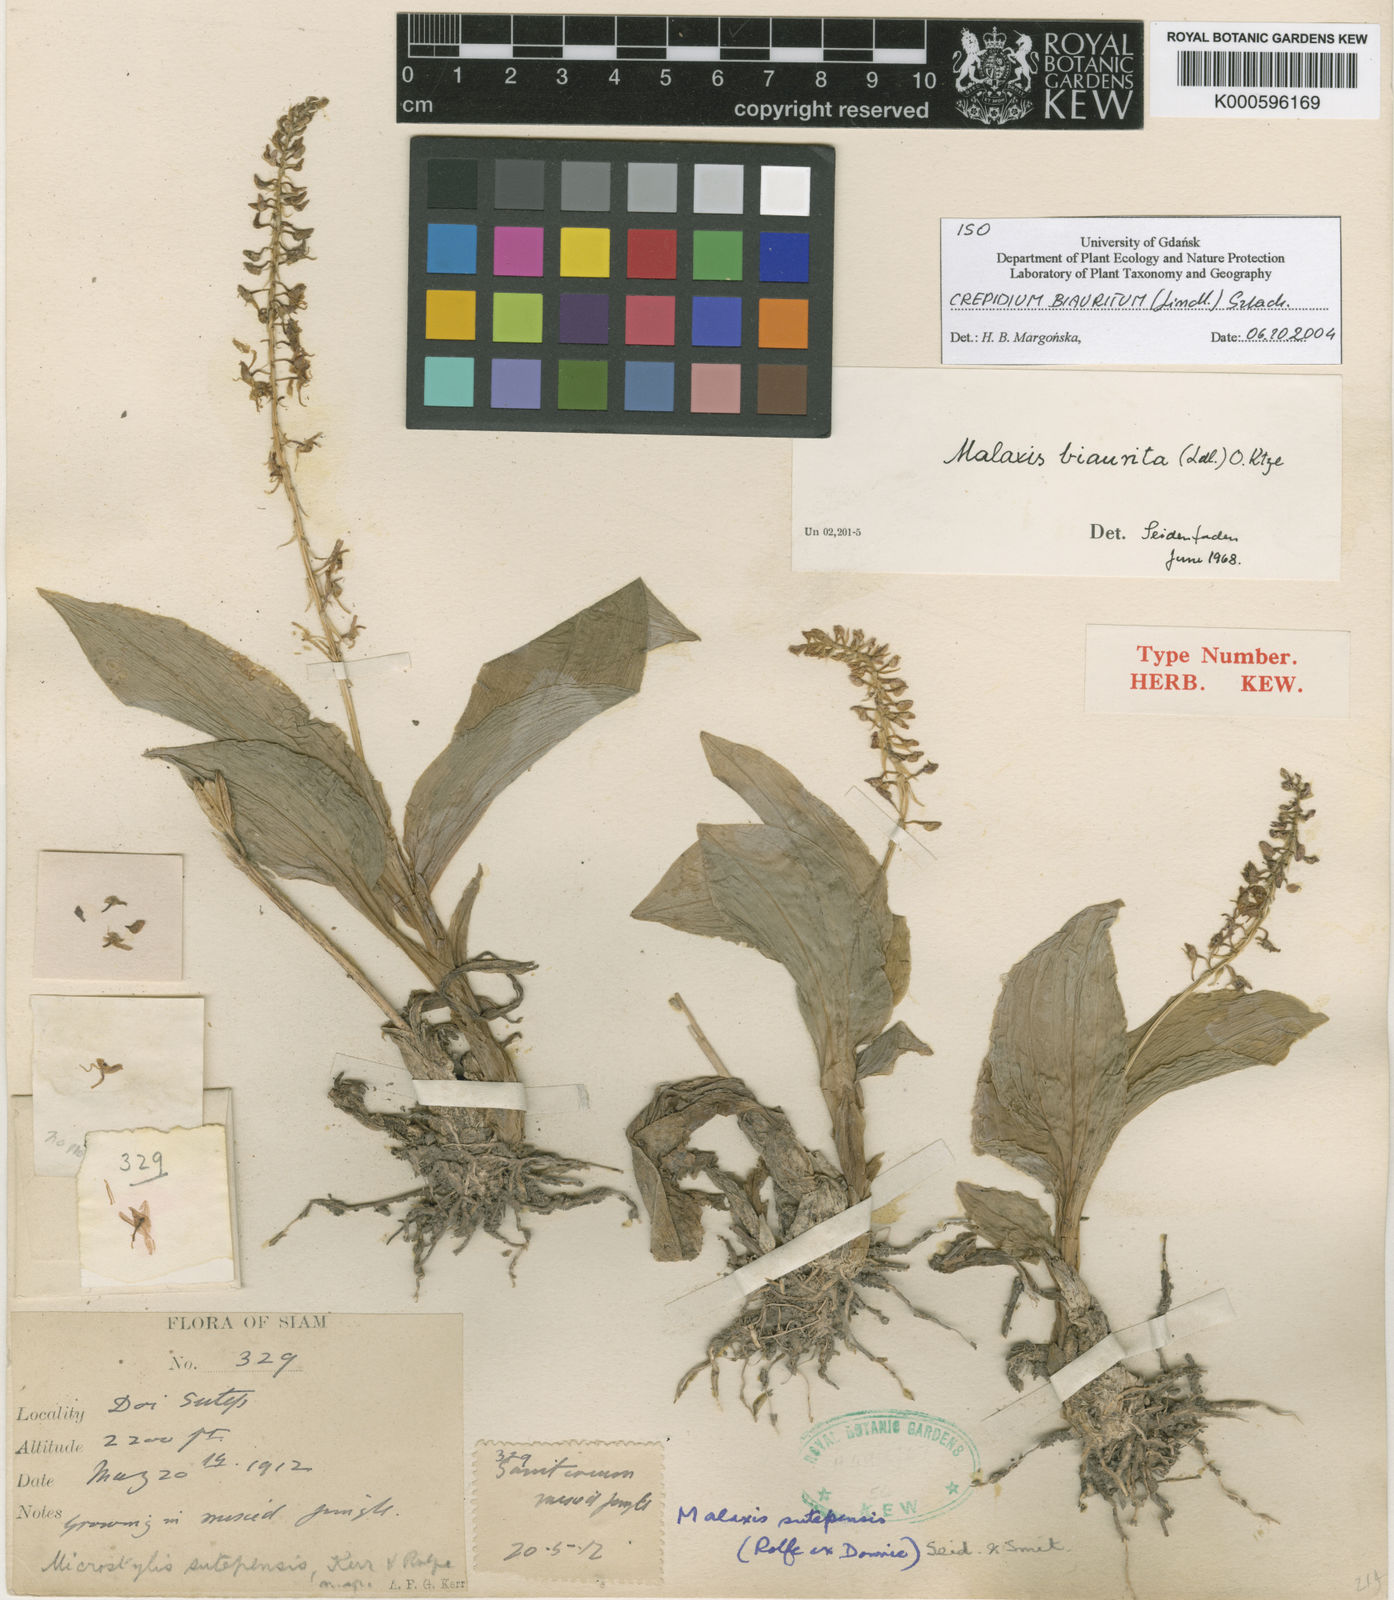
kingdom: Plantae
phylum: Tracheophyta
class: Liliopsida
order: Asparagales
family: Orchidaceae
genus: Crepidium
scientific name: Crepidium biauritum
